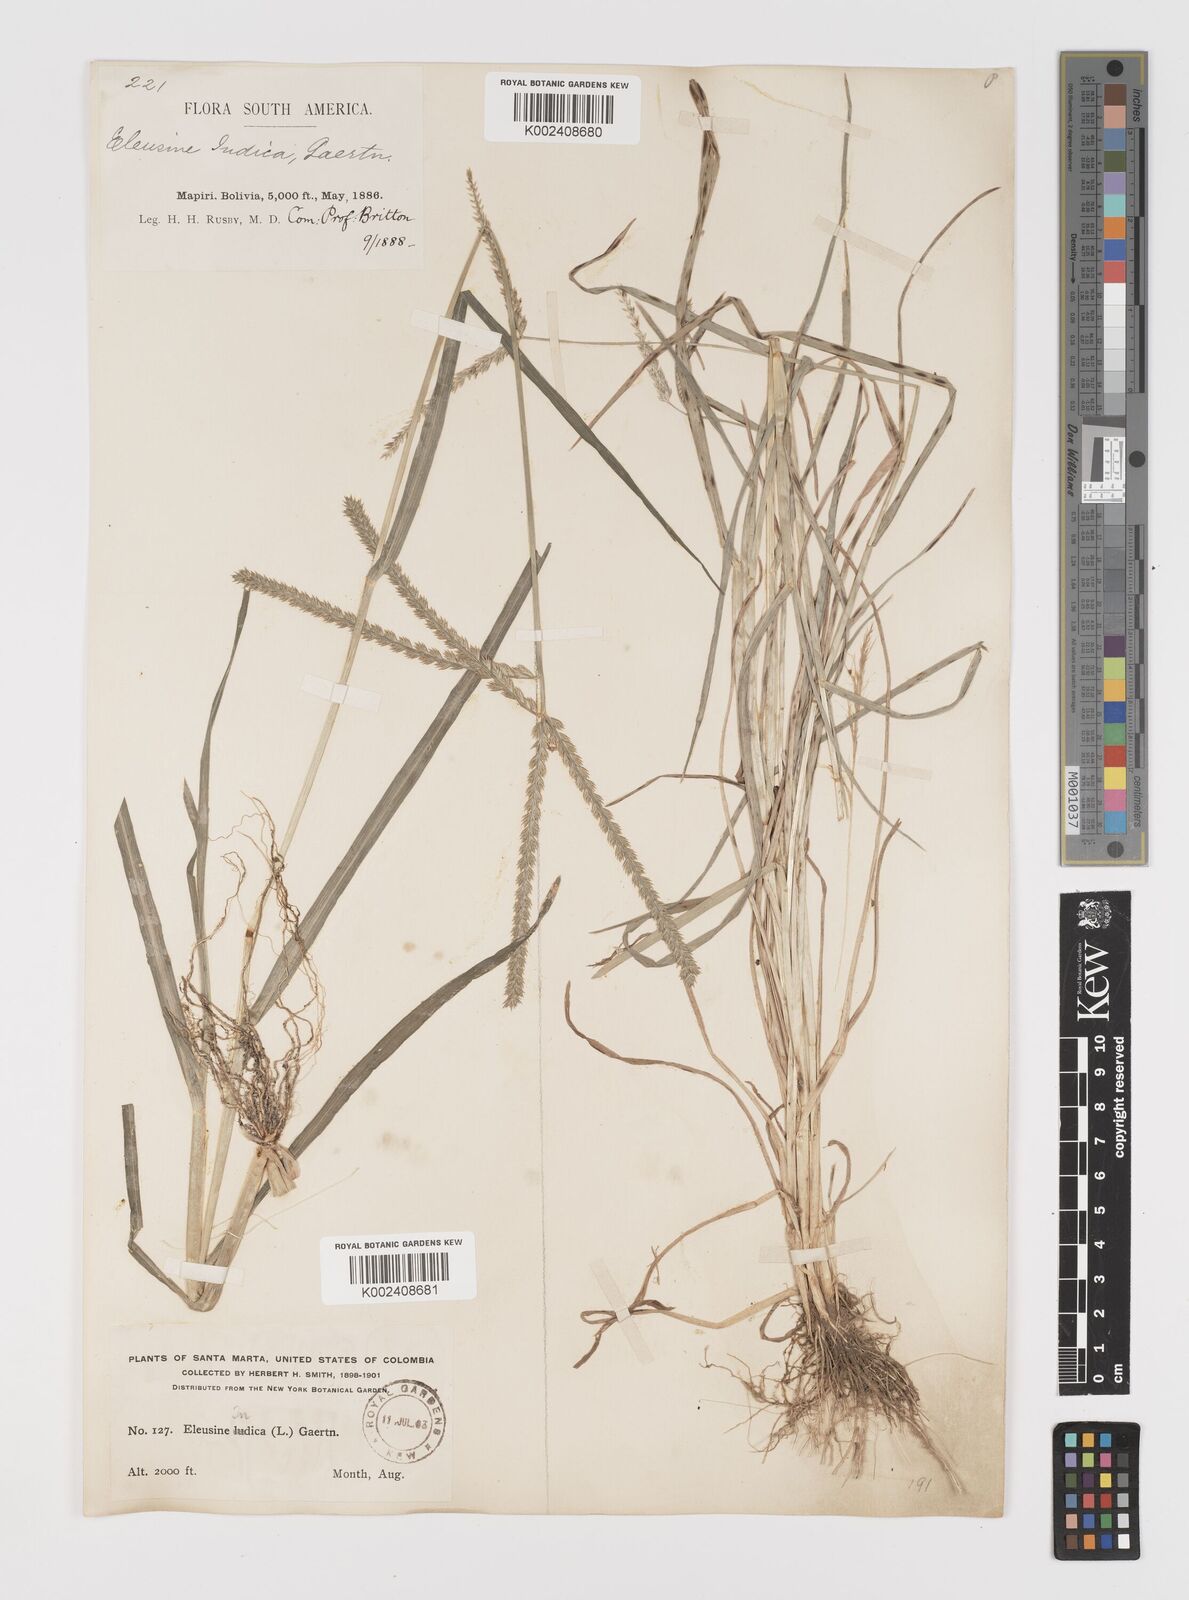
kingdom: Plantae
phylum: Tracheophyta
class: Liliopsida
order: Poales
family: Poaceae
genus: Eleusine
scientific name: Eleusine indica
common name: Yard-grass
